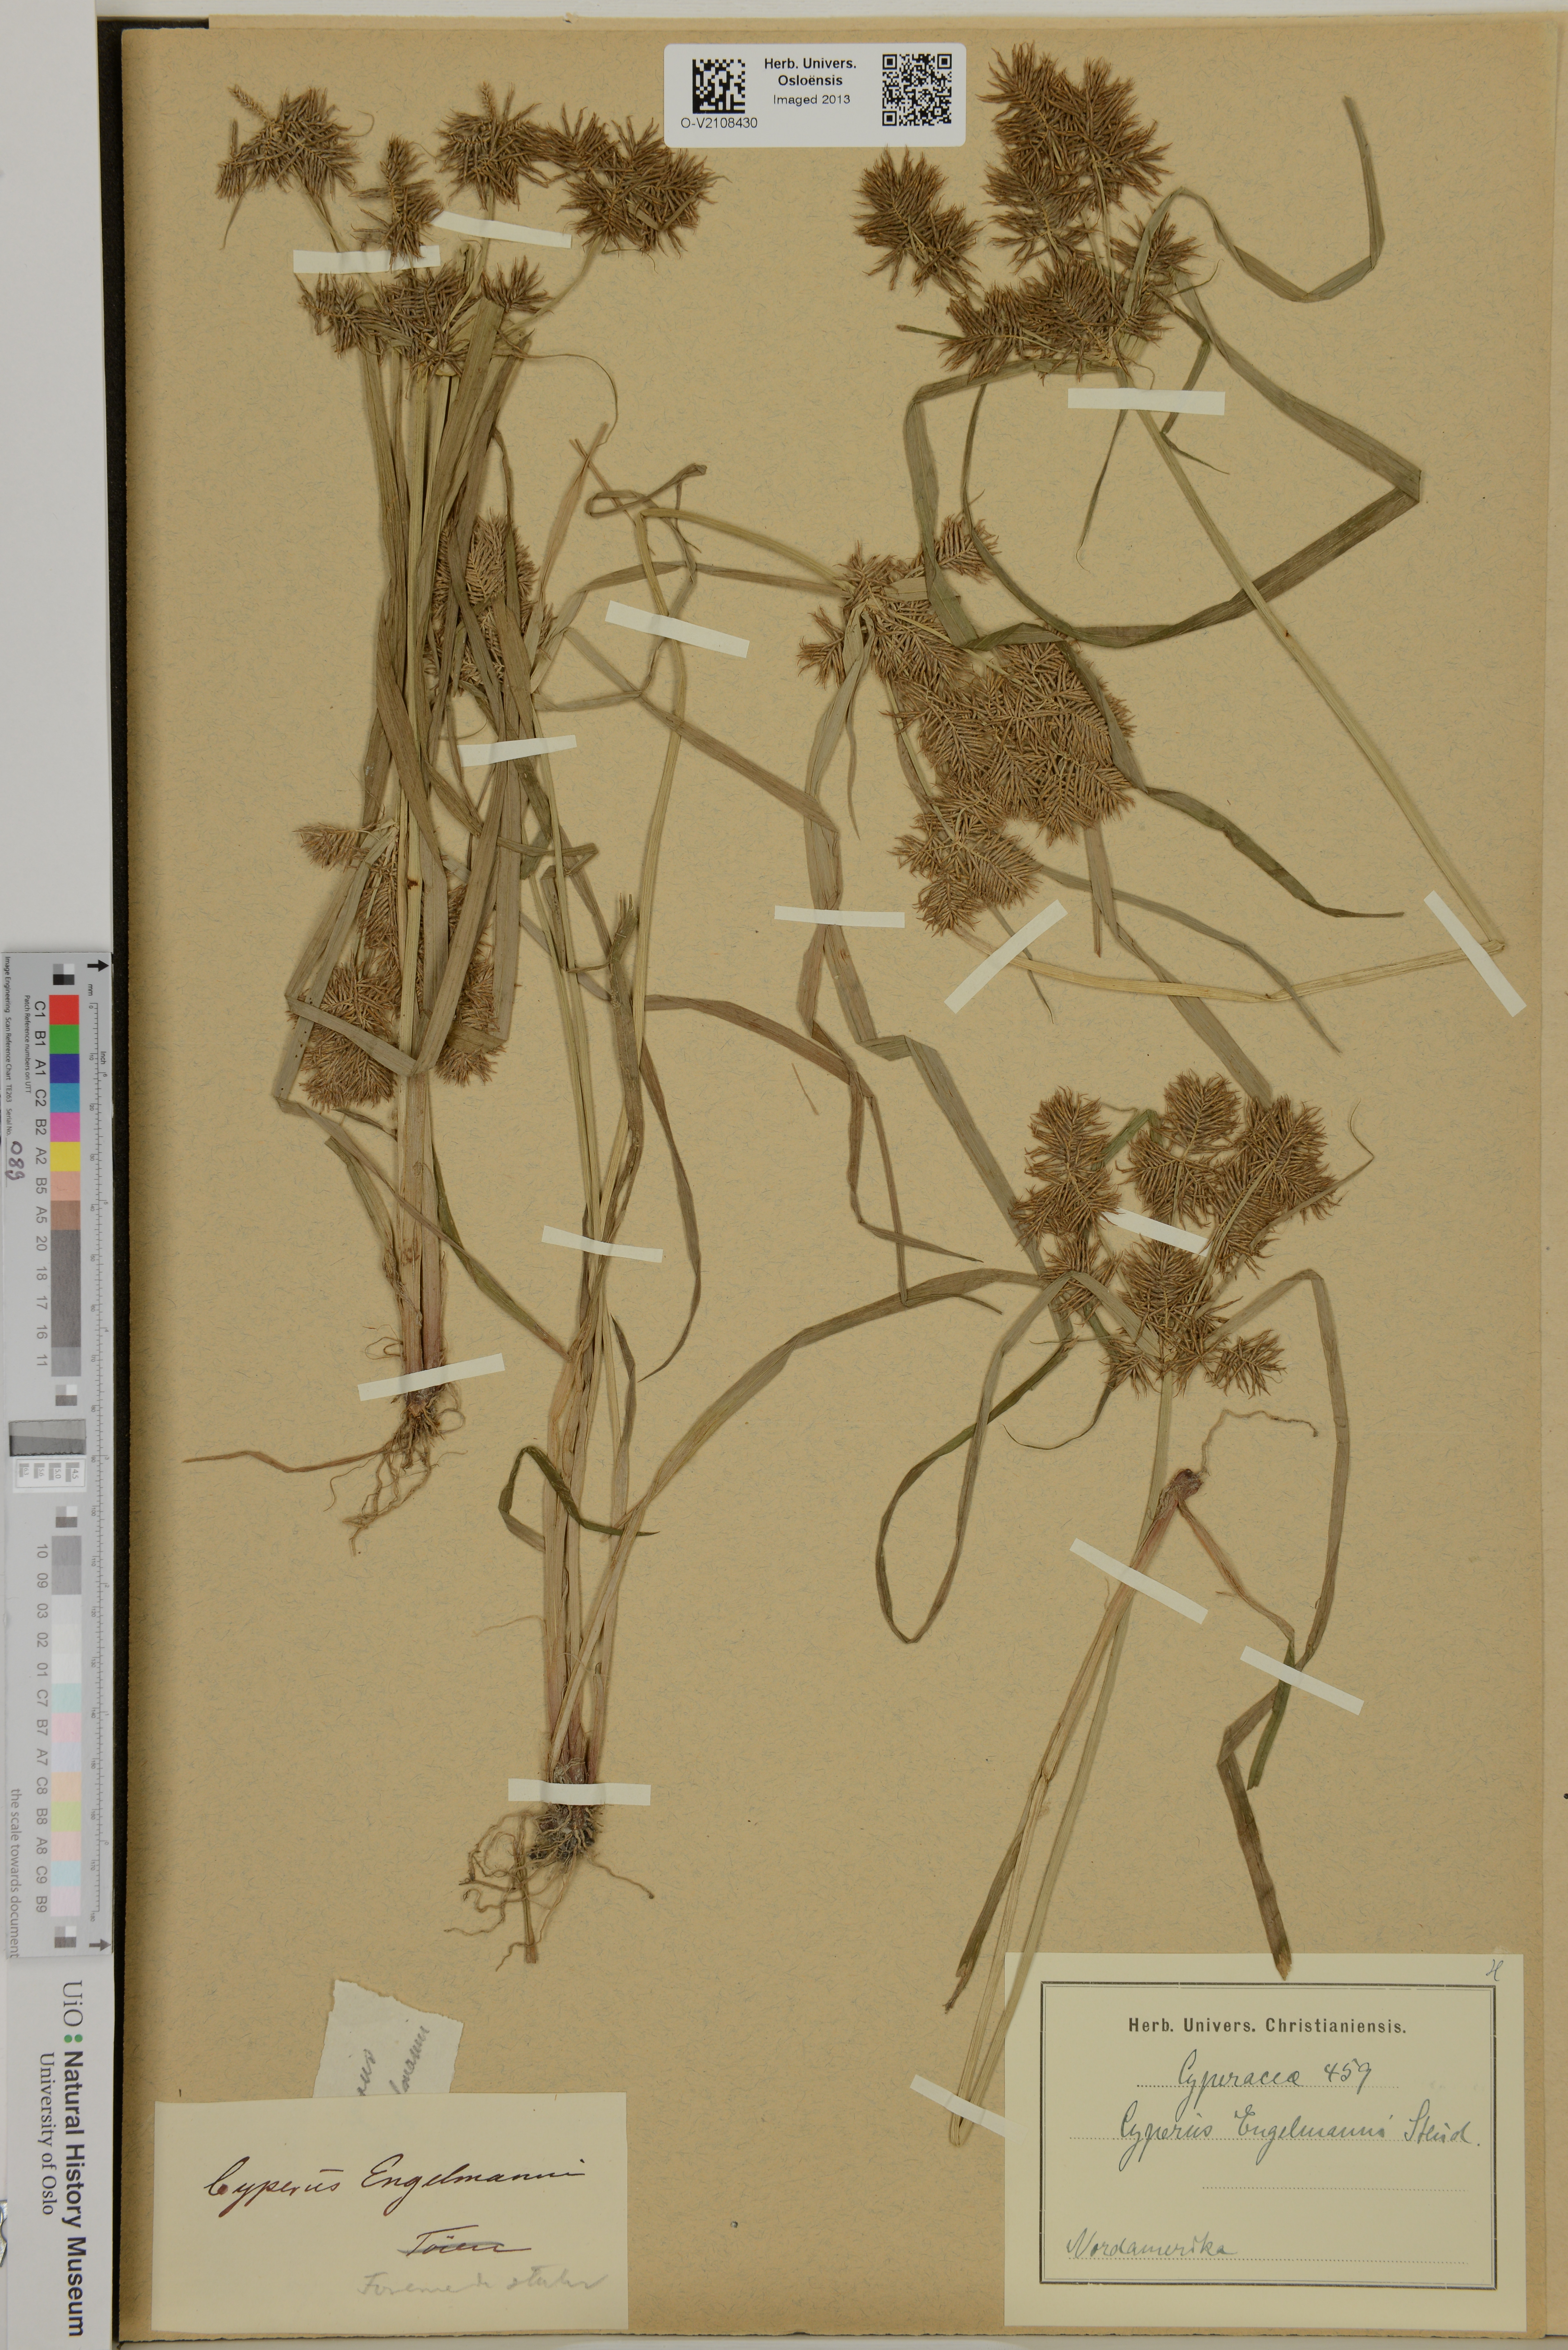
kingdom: Plantae
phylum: Tracheophyta
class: Liliopsida
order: Poales
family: Cyperaceae
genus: Cyperus
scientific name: Cyperus odoratus
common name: Fragrant flatsedge
